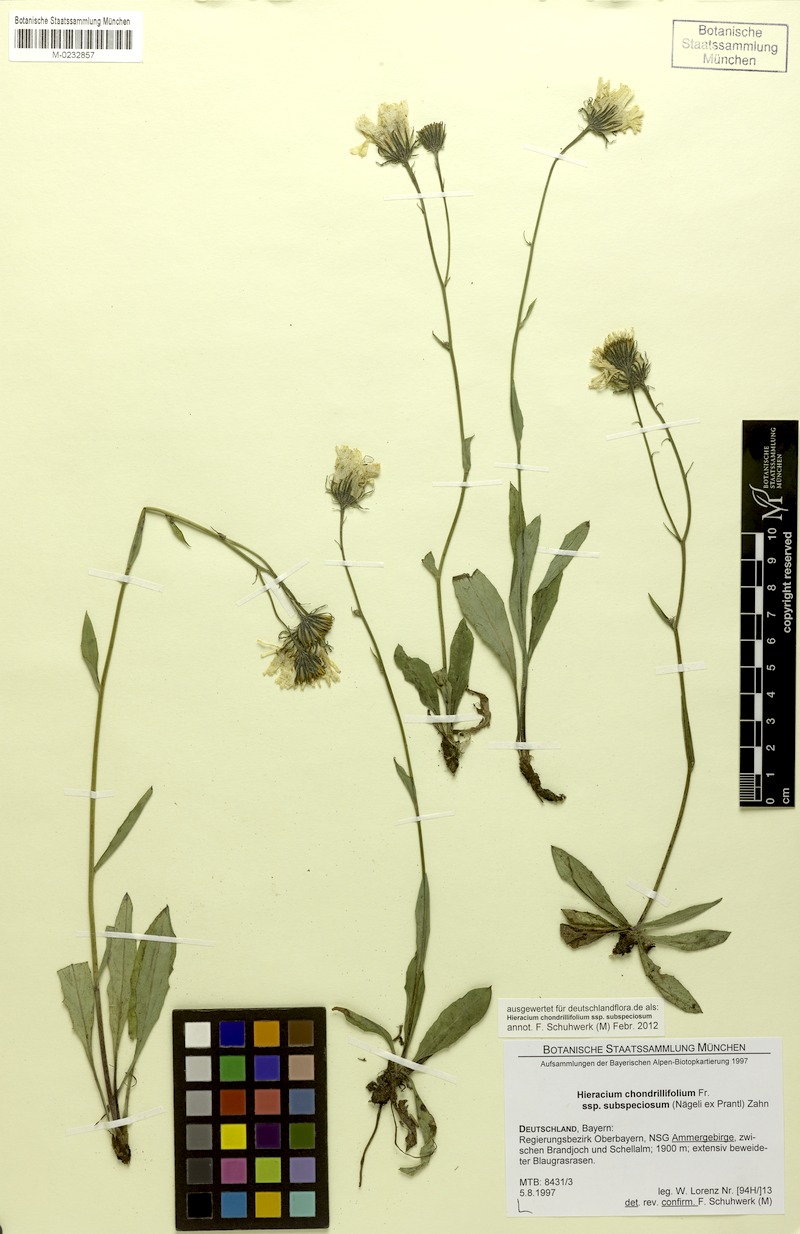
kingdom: Plantae
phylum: Tracheophyta
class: Magnoliopsida
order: Asterales
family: Asteraceae
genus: Hieracium
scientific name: Hieracium subspeciosum
